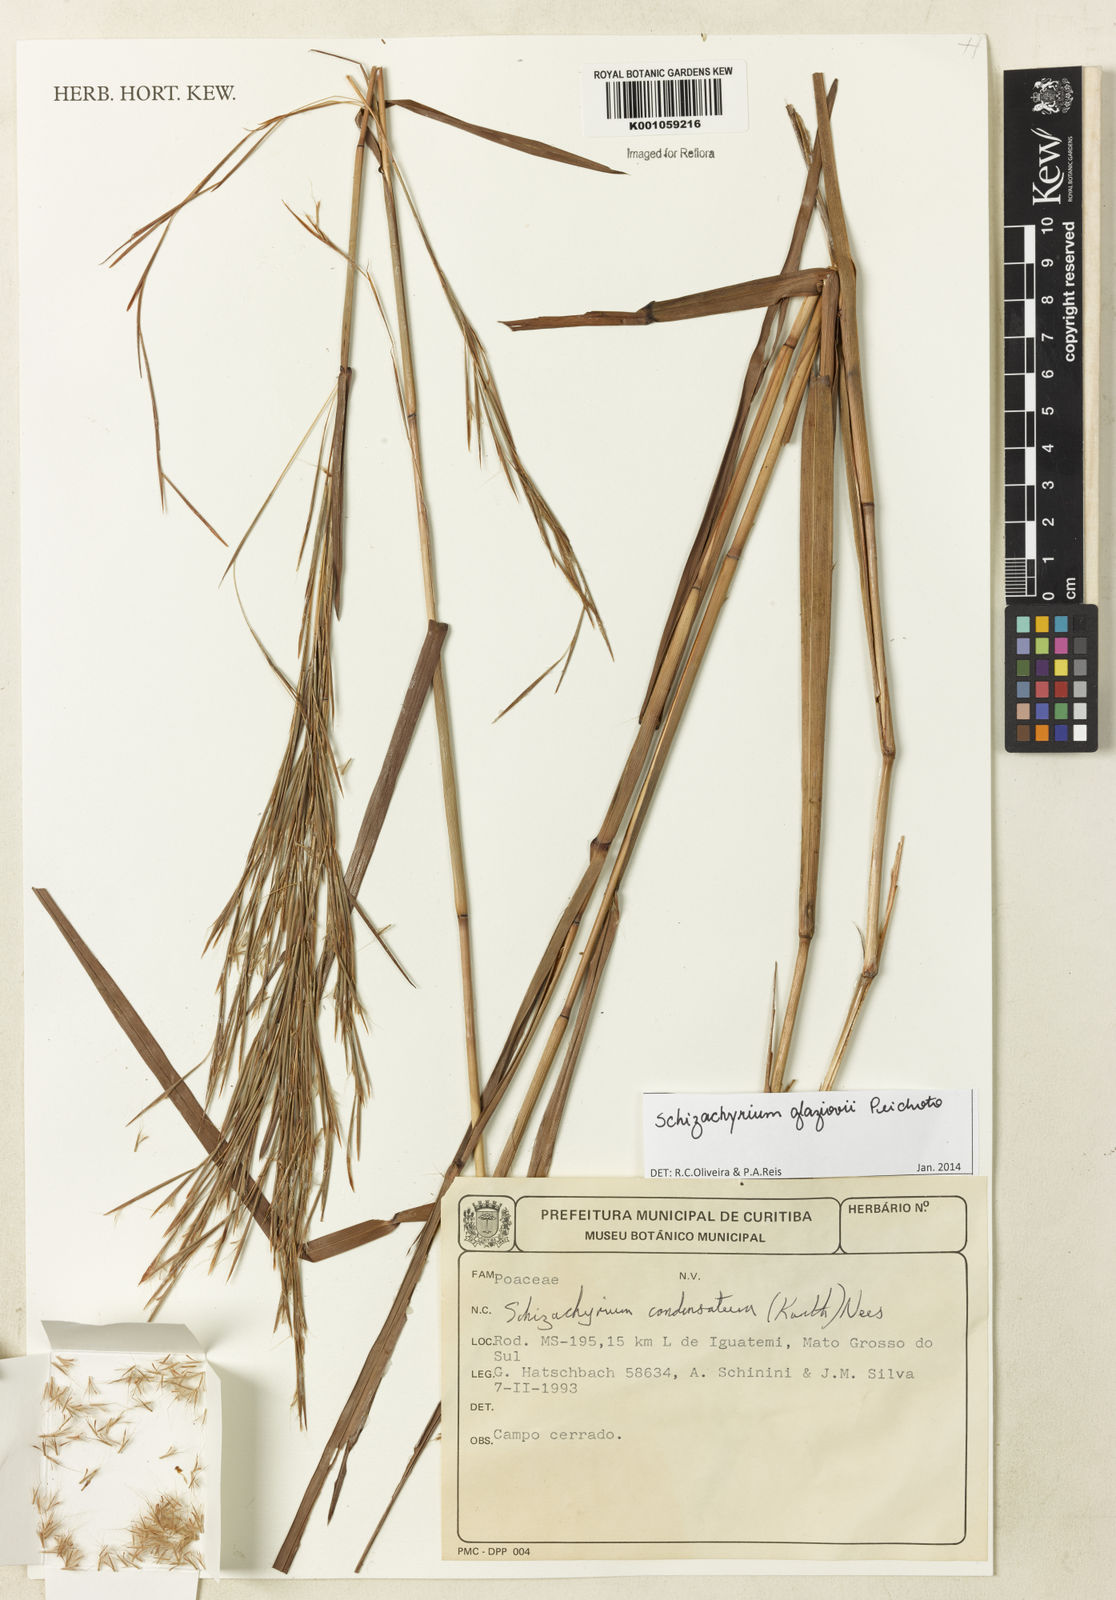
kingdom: Plantae
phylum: Tracheophyta
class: Liliopsida
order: Poales
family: Poaceae
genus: Schizachyrium
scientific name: Schizachyrium glaziovii
